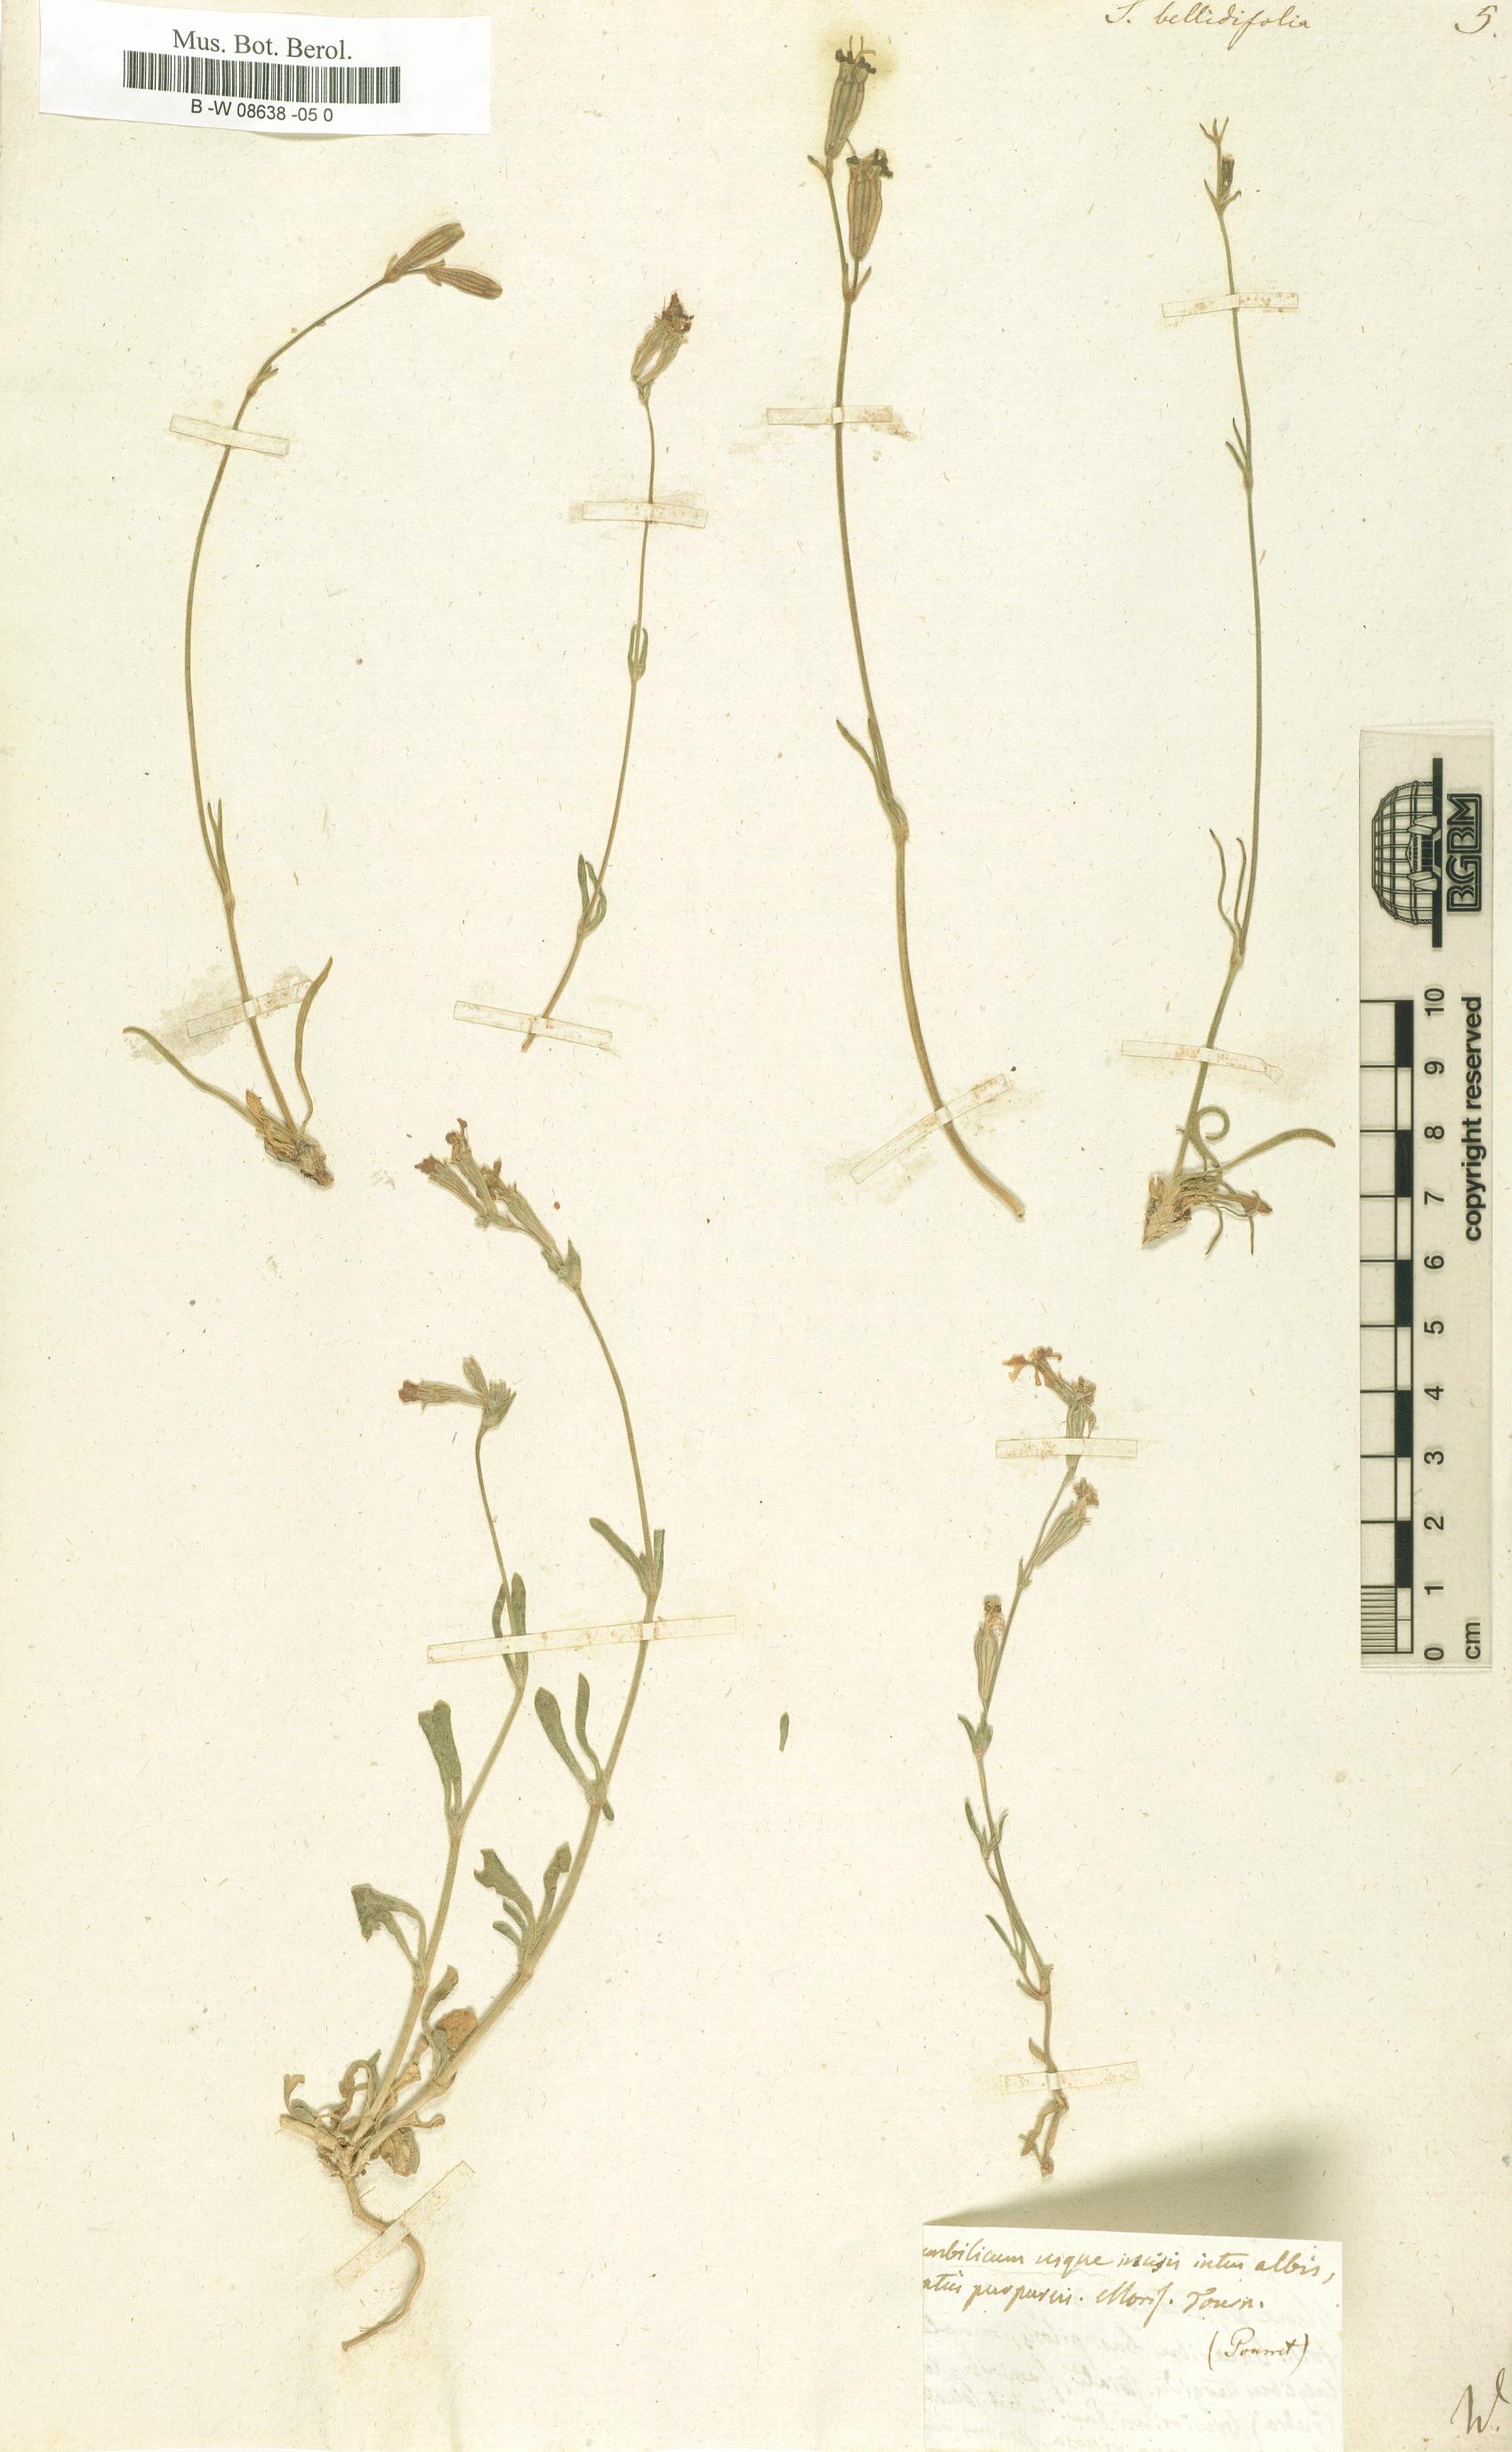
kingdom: Plantae
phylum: Tracheophyta
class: Magnoliopsida
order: Caryophyllales
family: Caryophyllaceae
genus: Silene
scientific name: Silene bellidifolia
